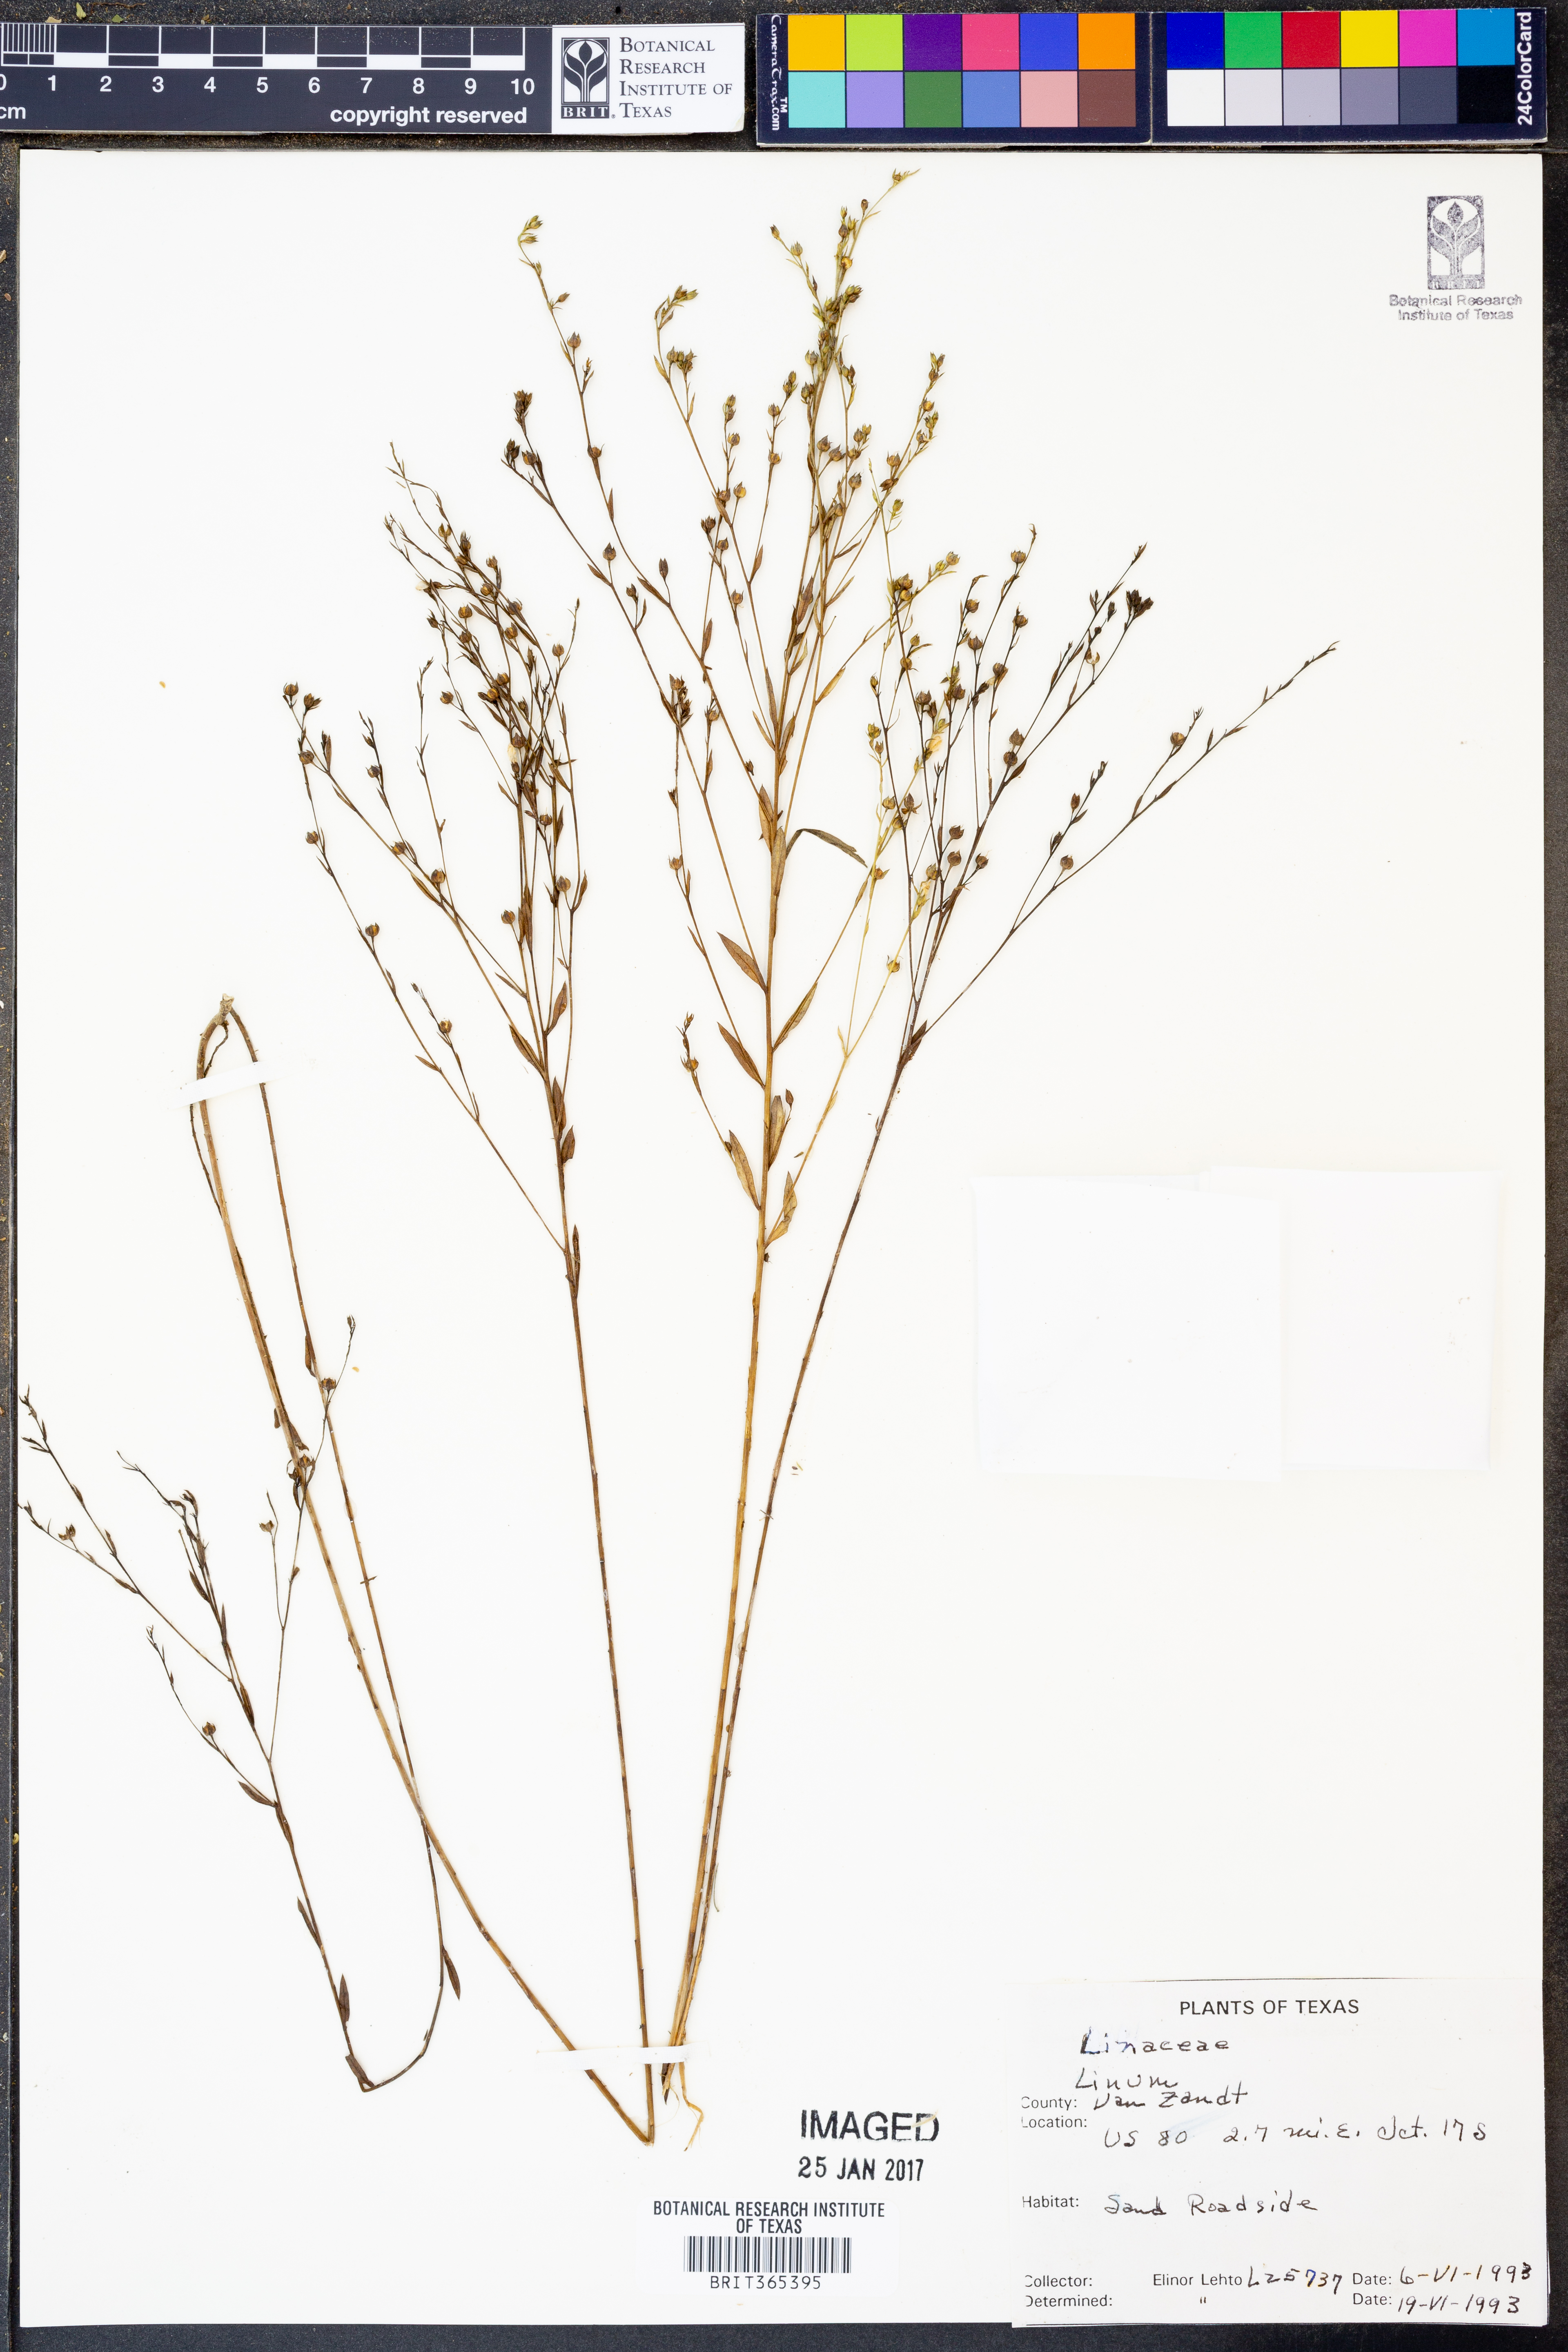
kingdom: Plantae
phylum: Tracheophyta
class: Magnoliopsida
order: Malpighiales
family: Linaceae
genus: Linum
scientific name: Linum
